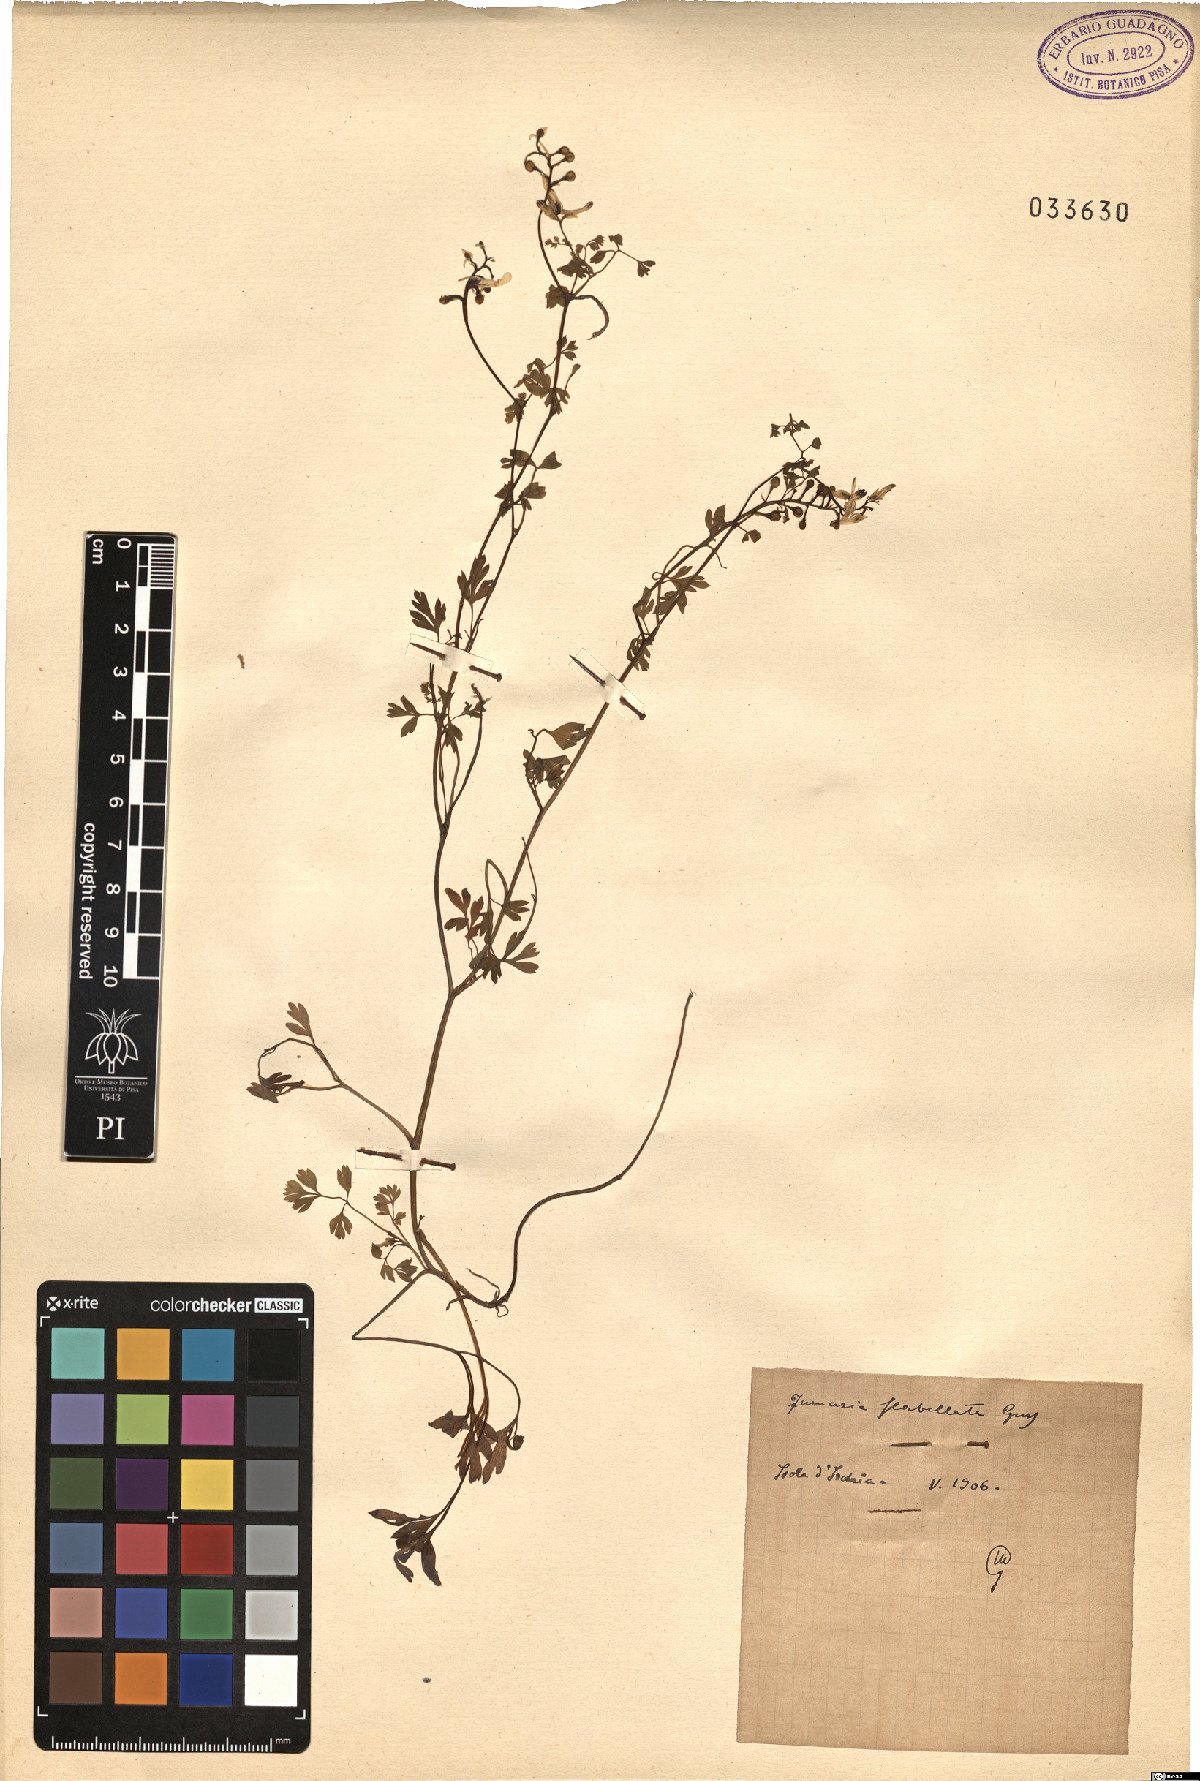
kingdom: Plantae
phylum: Tracheophyta
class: Magnoliopsida
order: Ranunculales
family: Papaveraceae
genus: Fumaria
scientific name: Fumaria flabellata
